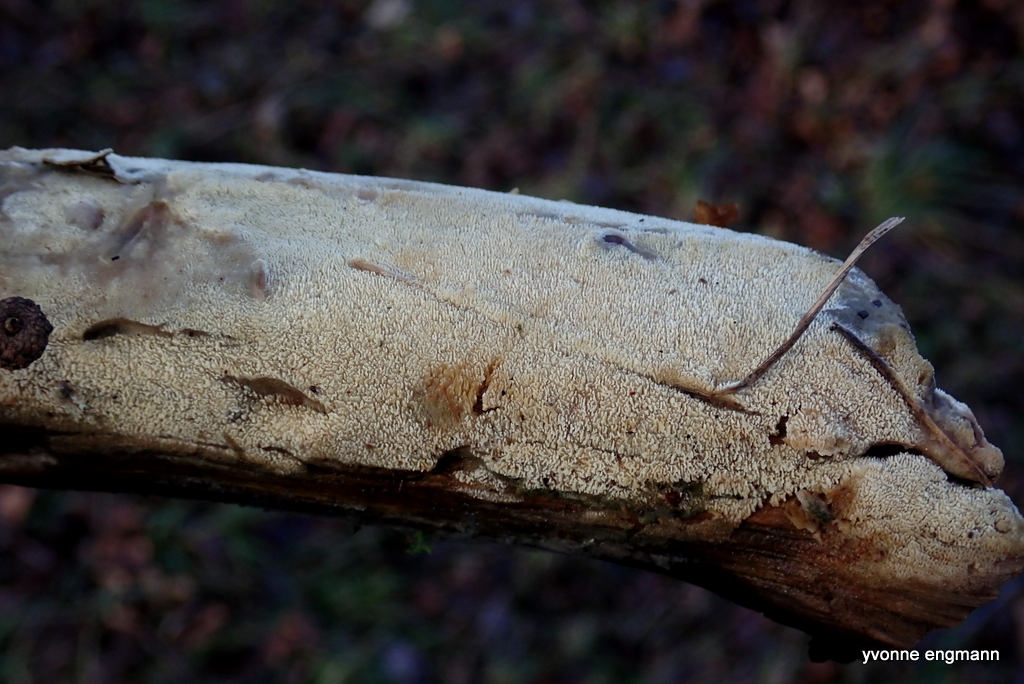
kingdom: Fungi
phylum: Basidiomycota
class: Agaricomycetes
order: Hymenochaetales
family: Schizoporaceae
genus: Xylodon
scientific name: Xylodon subtropicus
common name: labyrint-tandsvamp
